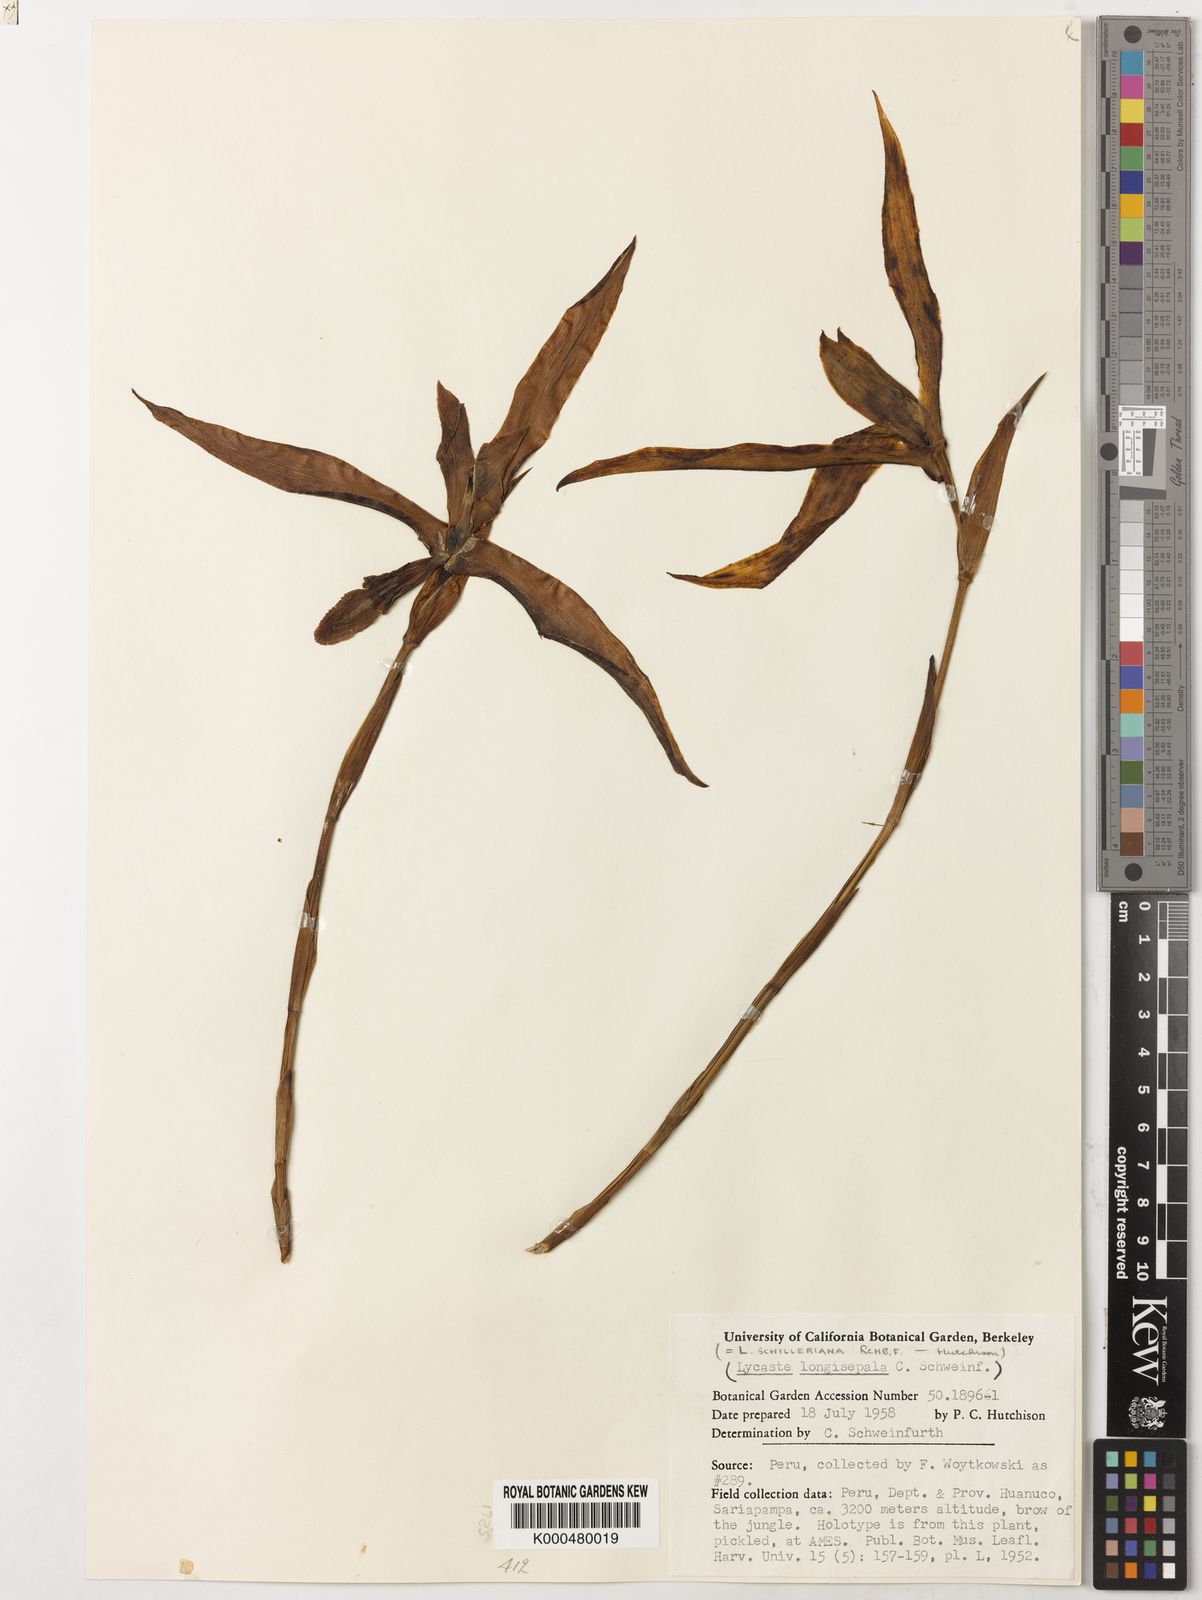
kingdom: Plantae
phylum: Tracheophyta
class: Liliopsida
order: Asparagales
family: Orchidaceae
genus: Lycaste
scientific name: Lycaste schilleriana
